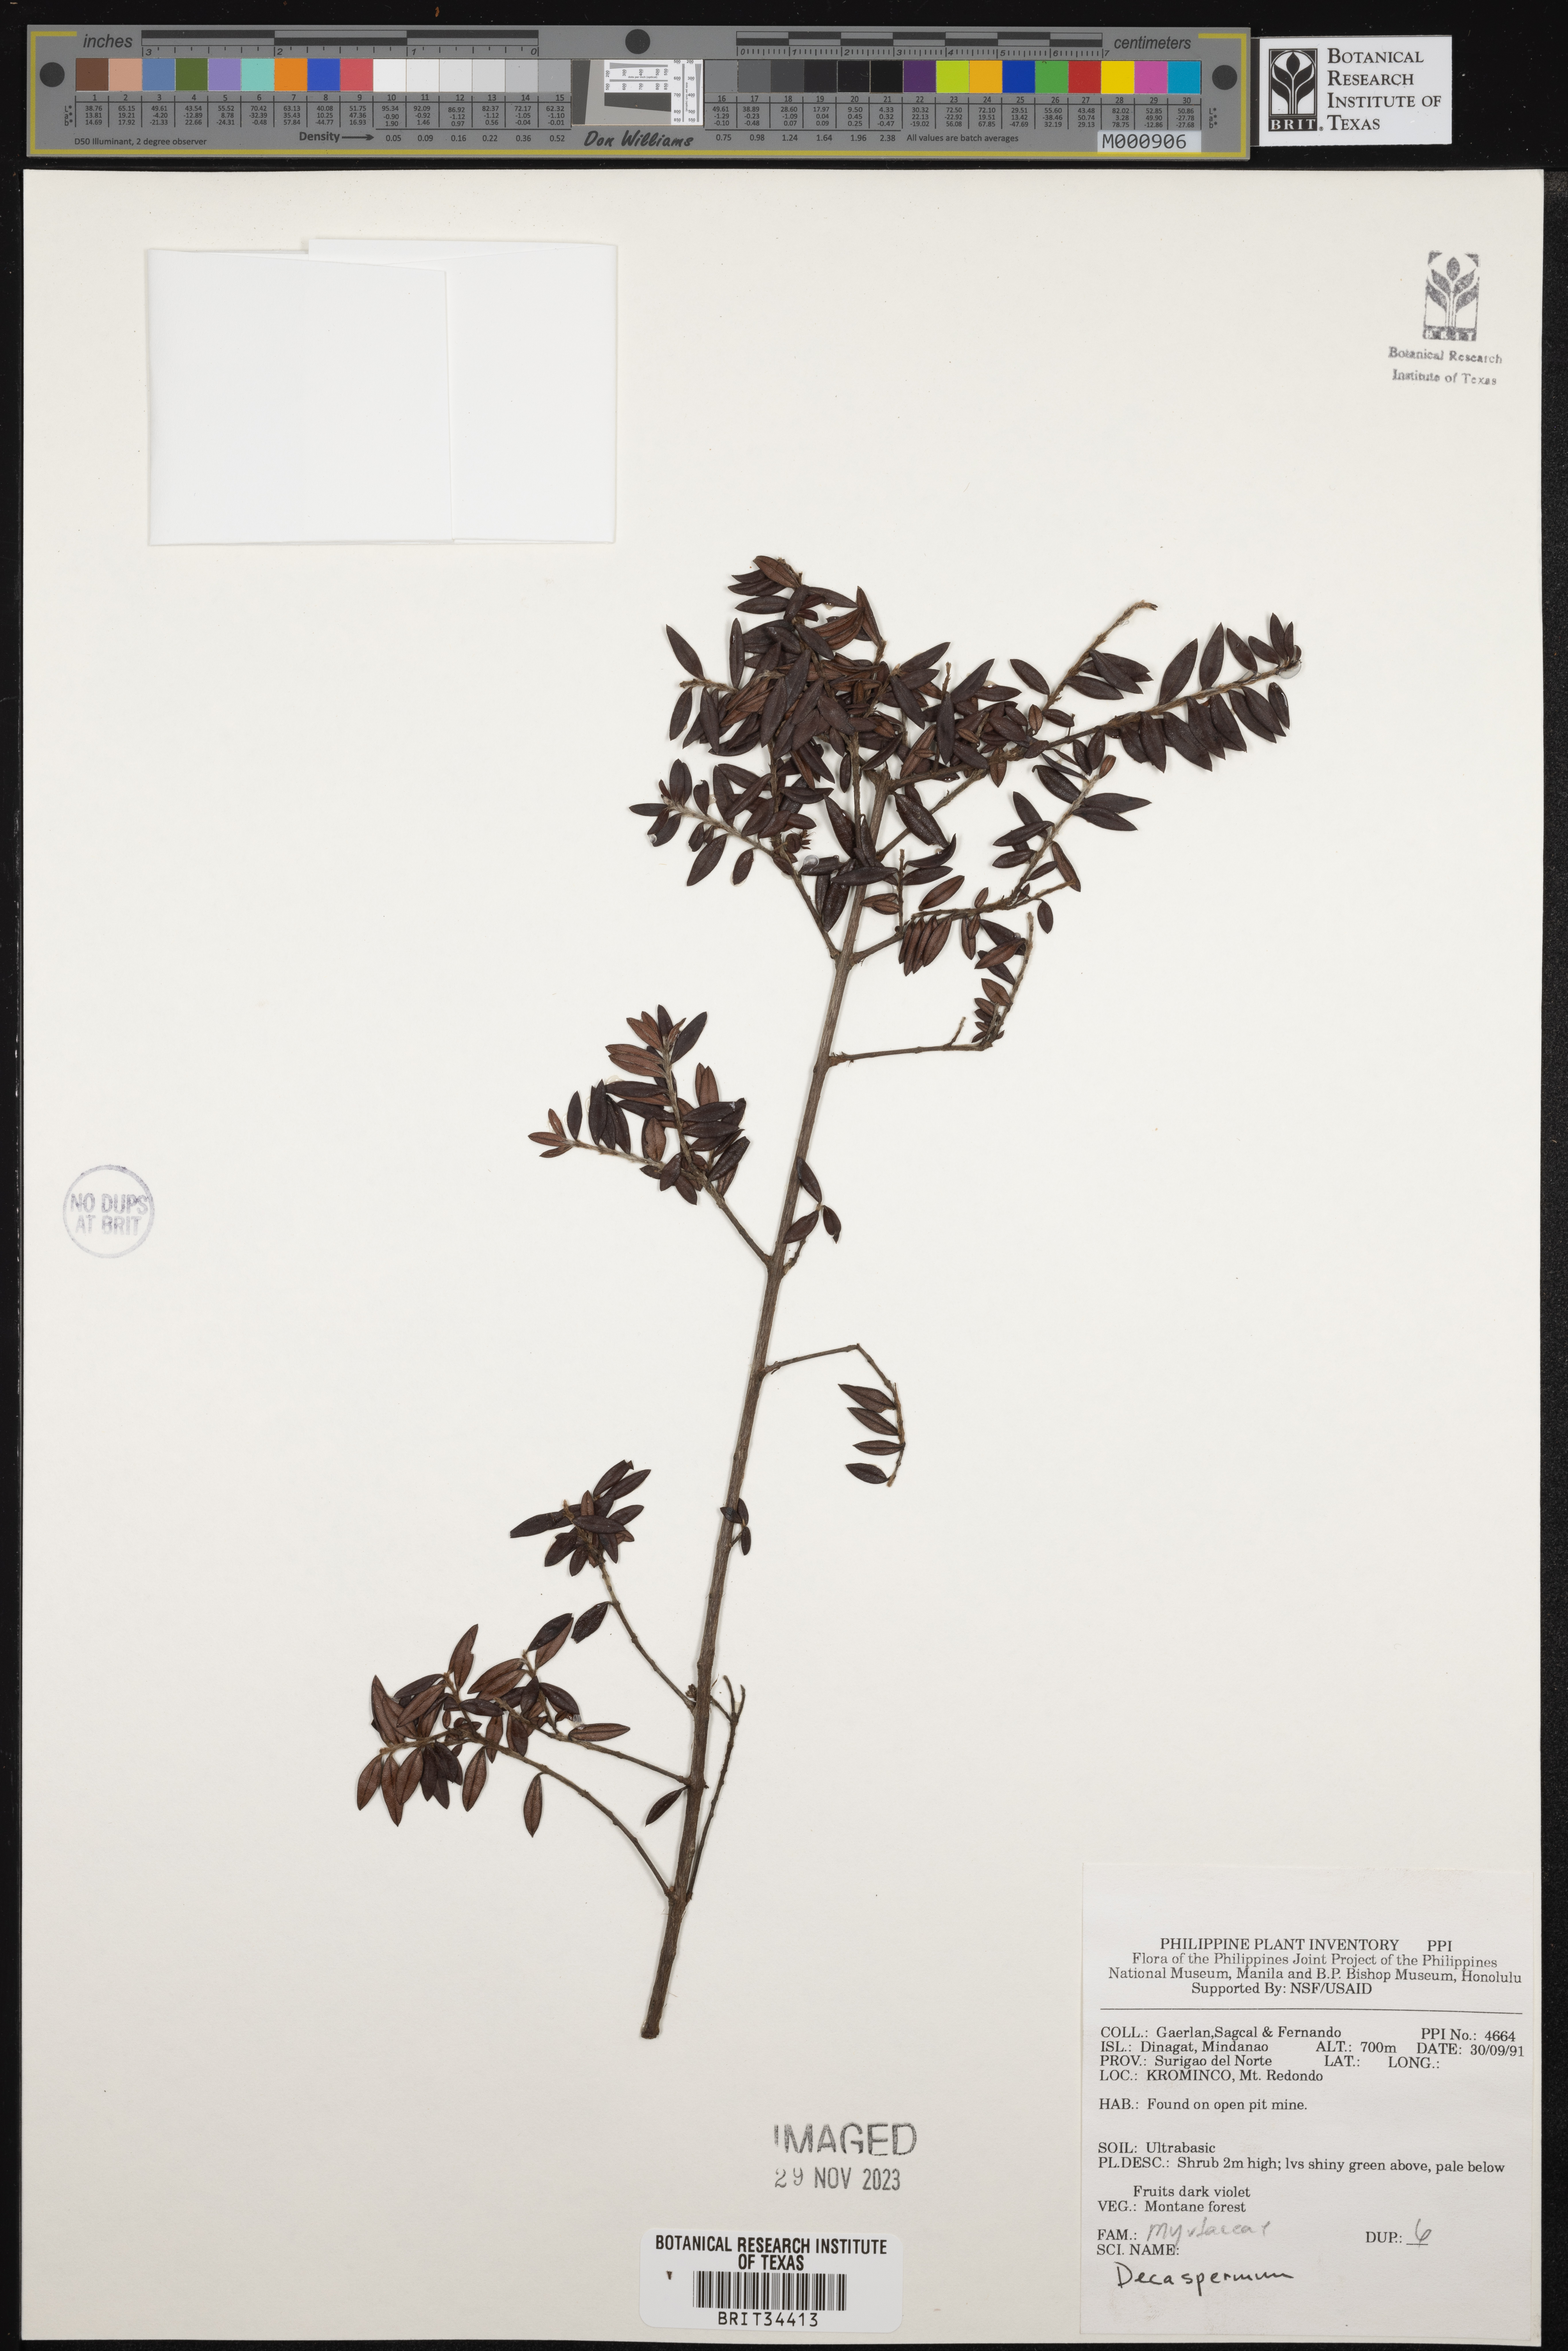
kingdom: Plantae
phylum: Tracheophyta
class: Magnoliopsida
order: Myrtales
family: Myrtaceae
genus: Decaspermum
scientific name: Decaspermum
